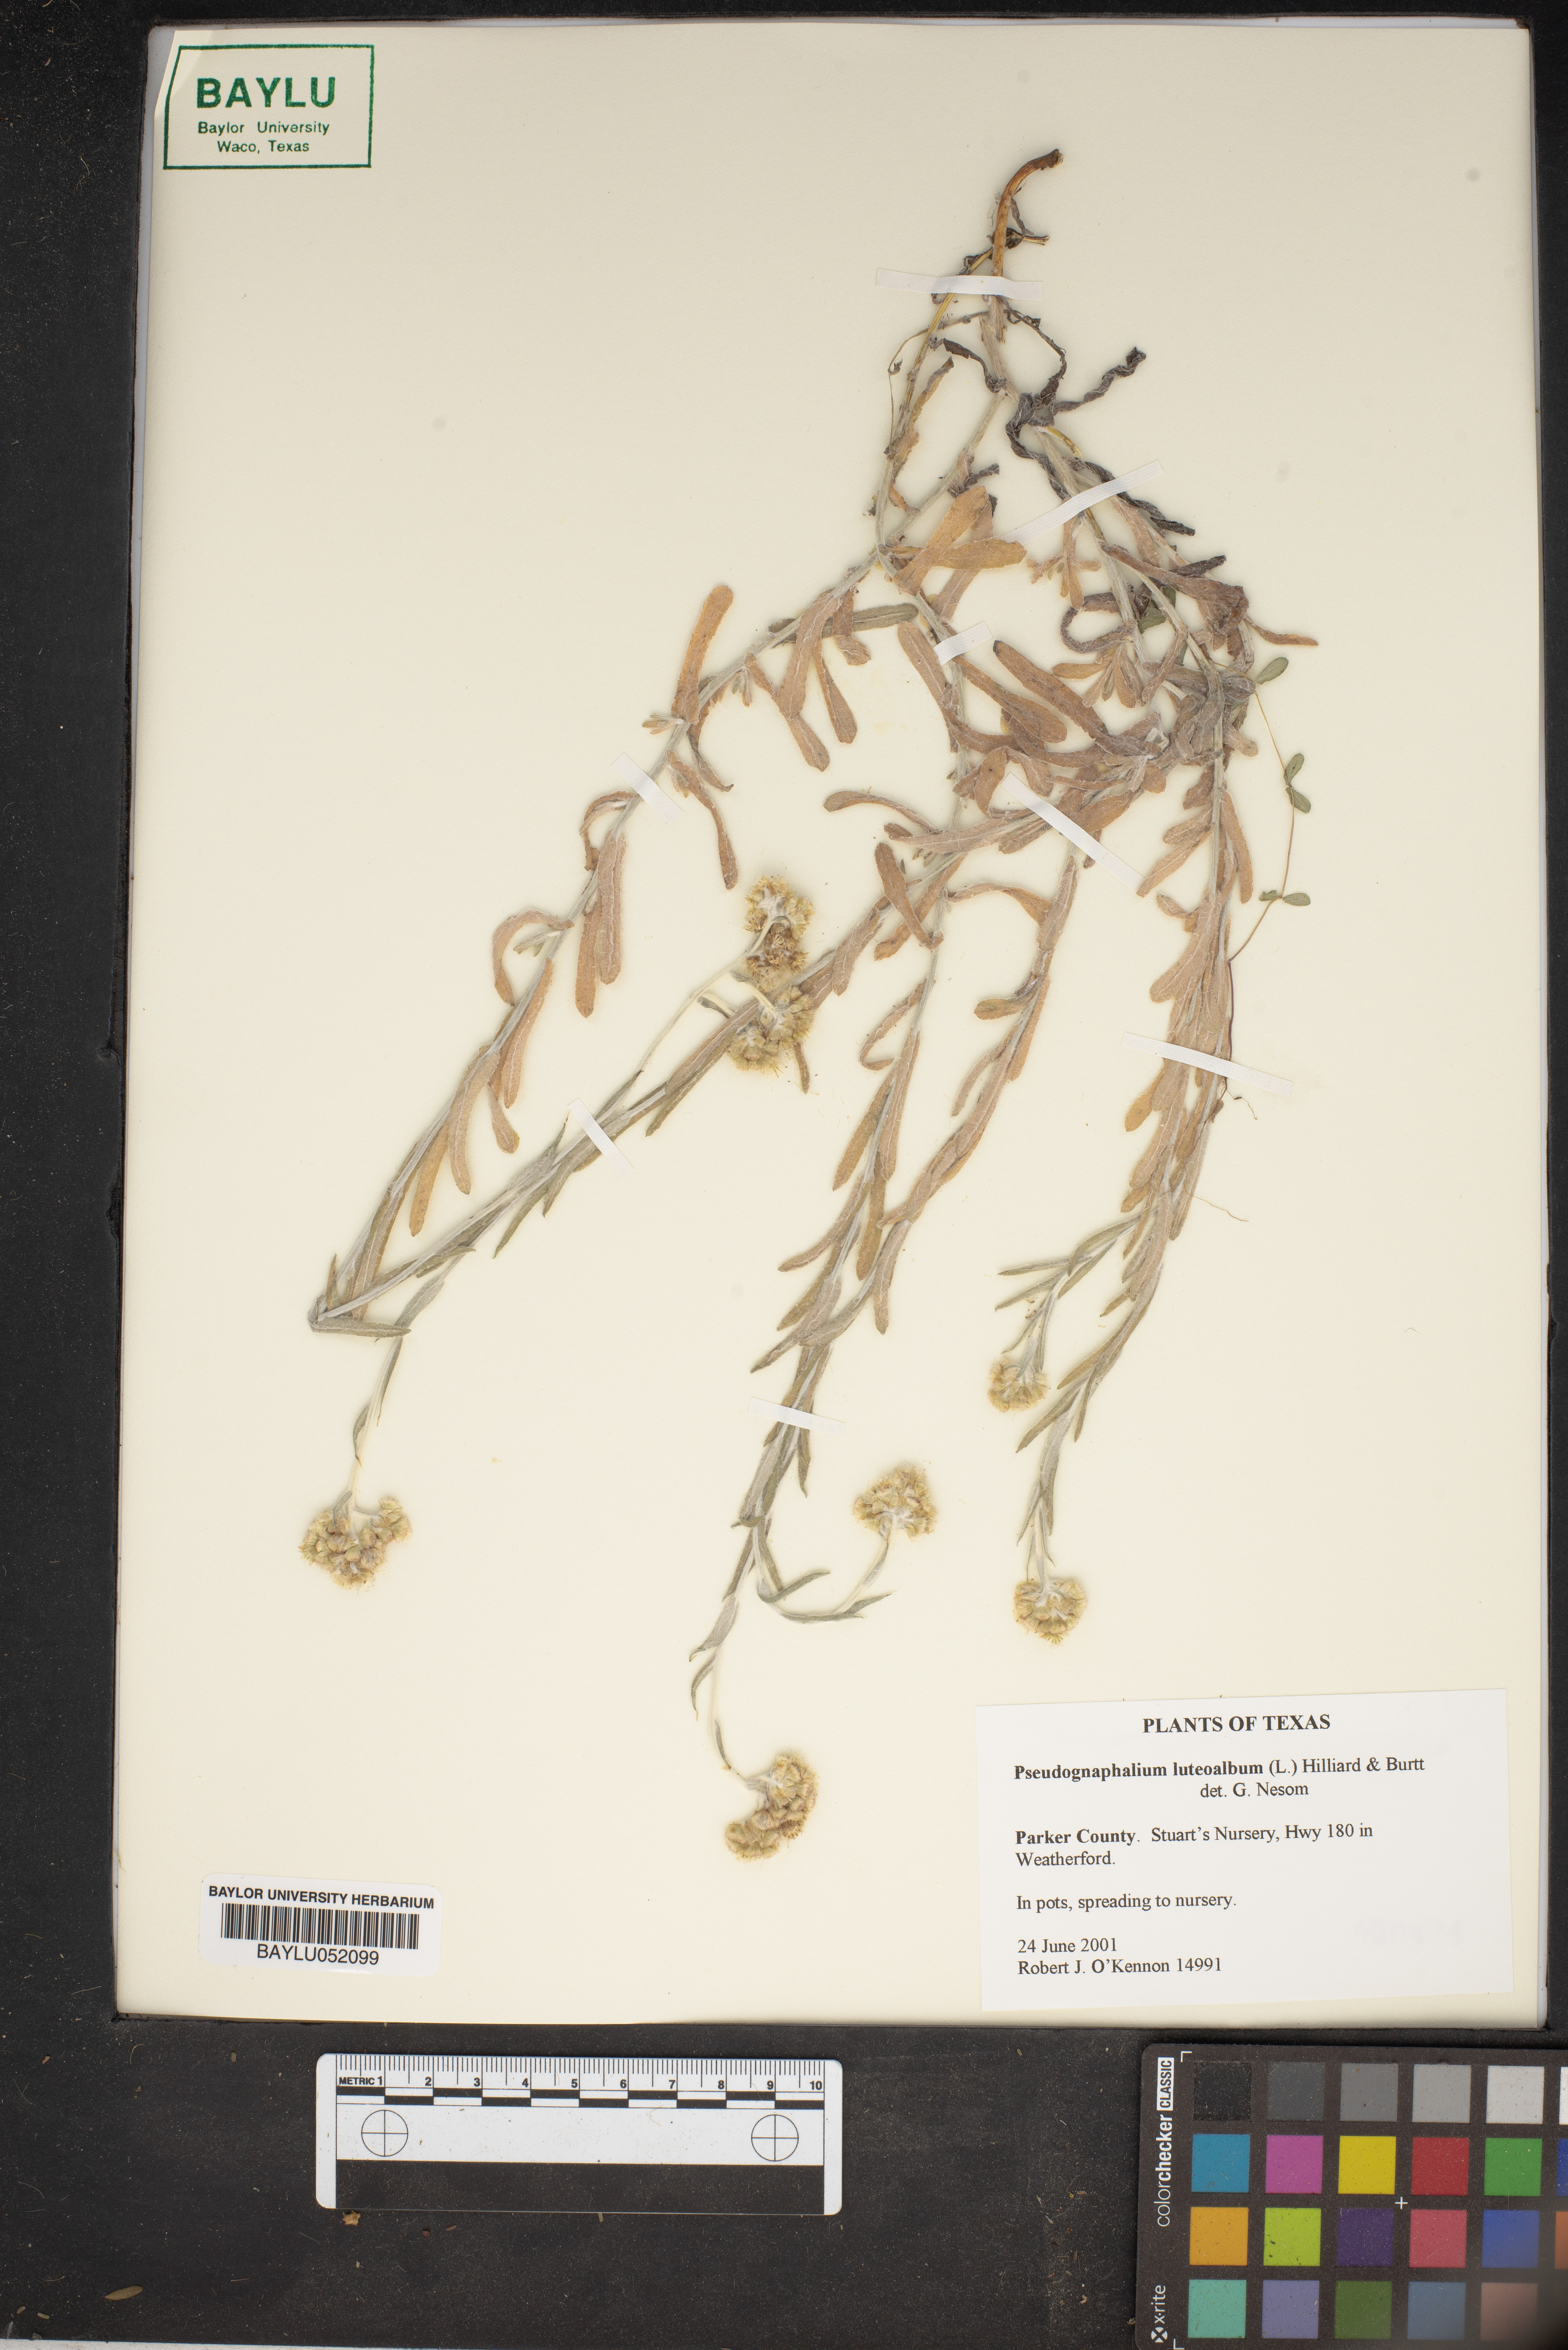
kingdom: Plantae
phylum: Tracheophyta
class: Magnoliopsida
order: Asterales
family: Asteraceae
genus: Helichrysum
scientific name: Helichrysum luteoalbum
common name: Daisy
